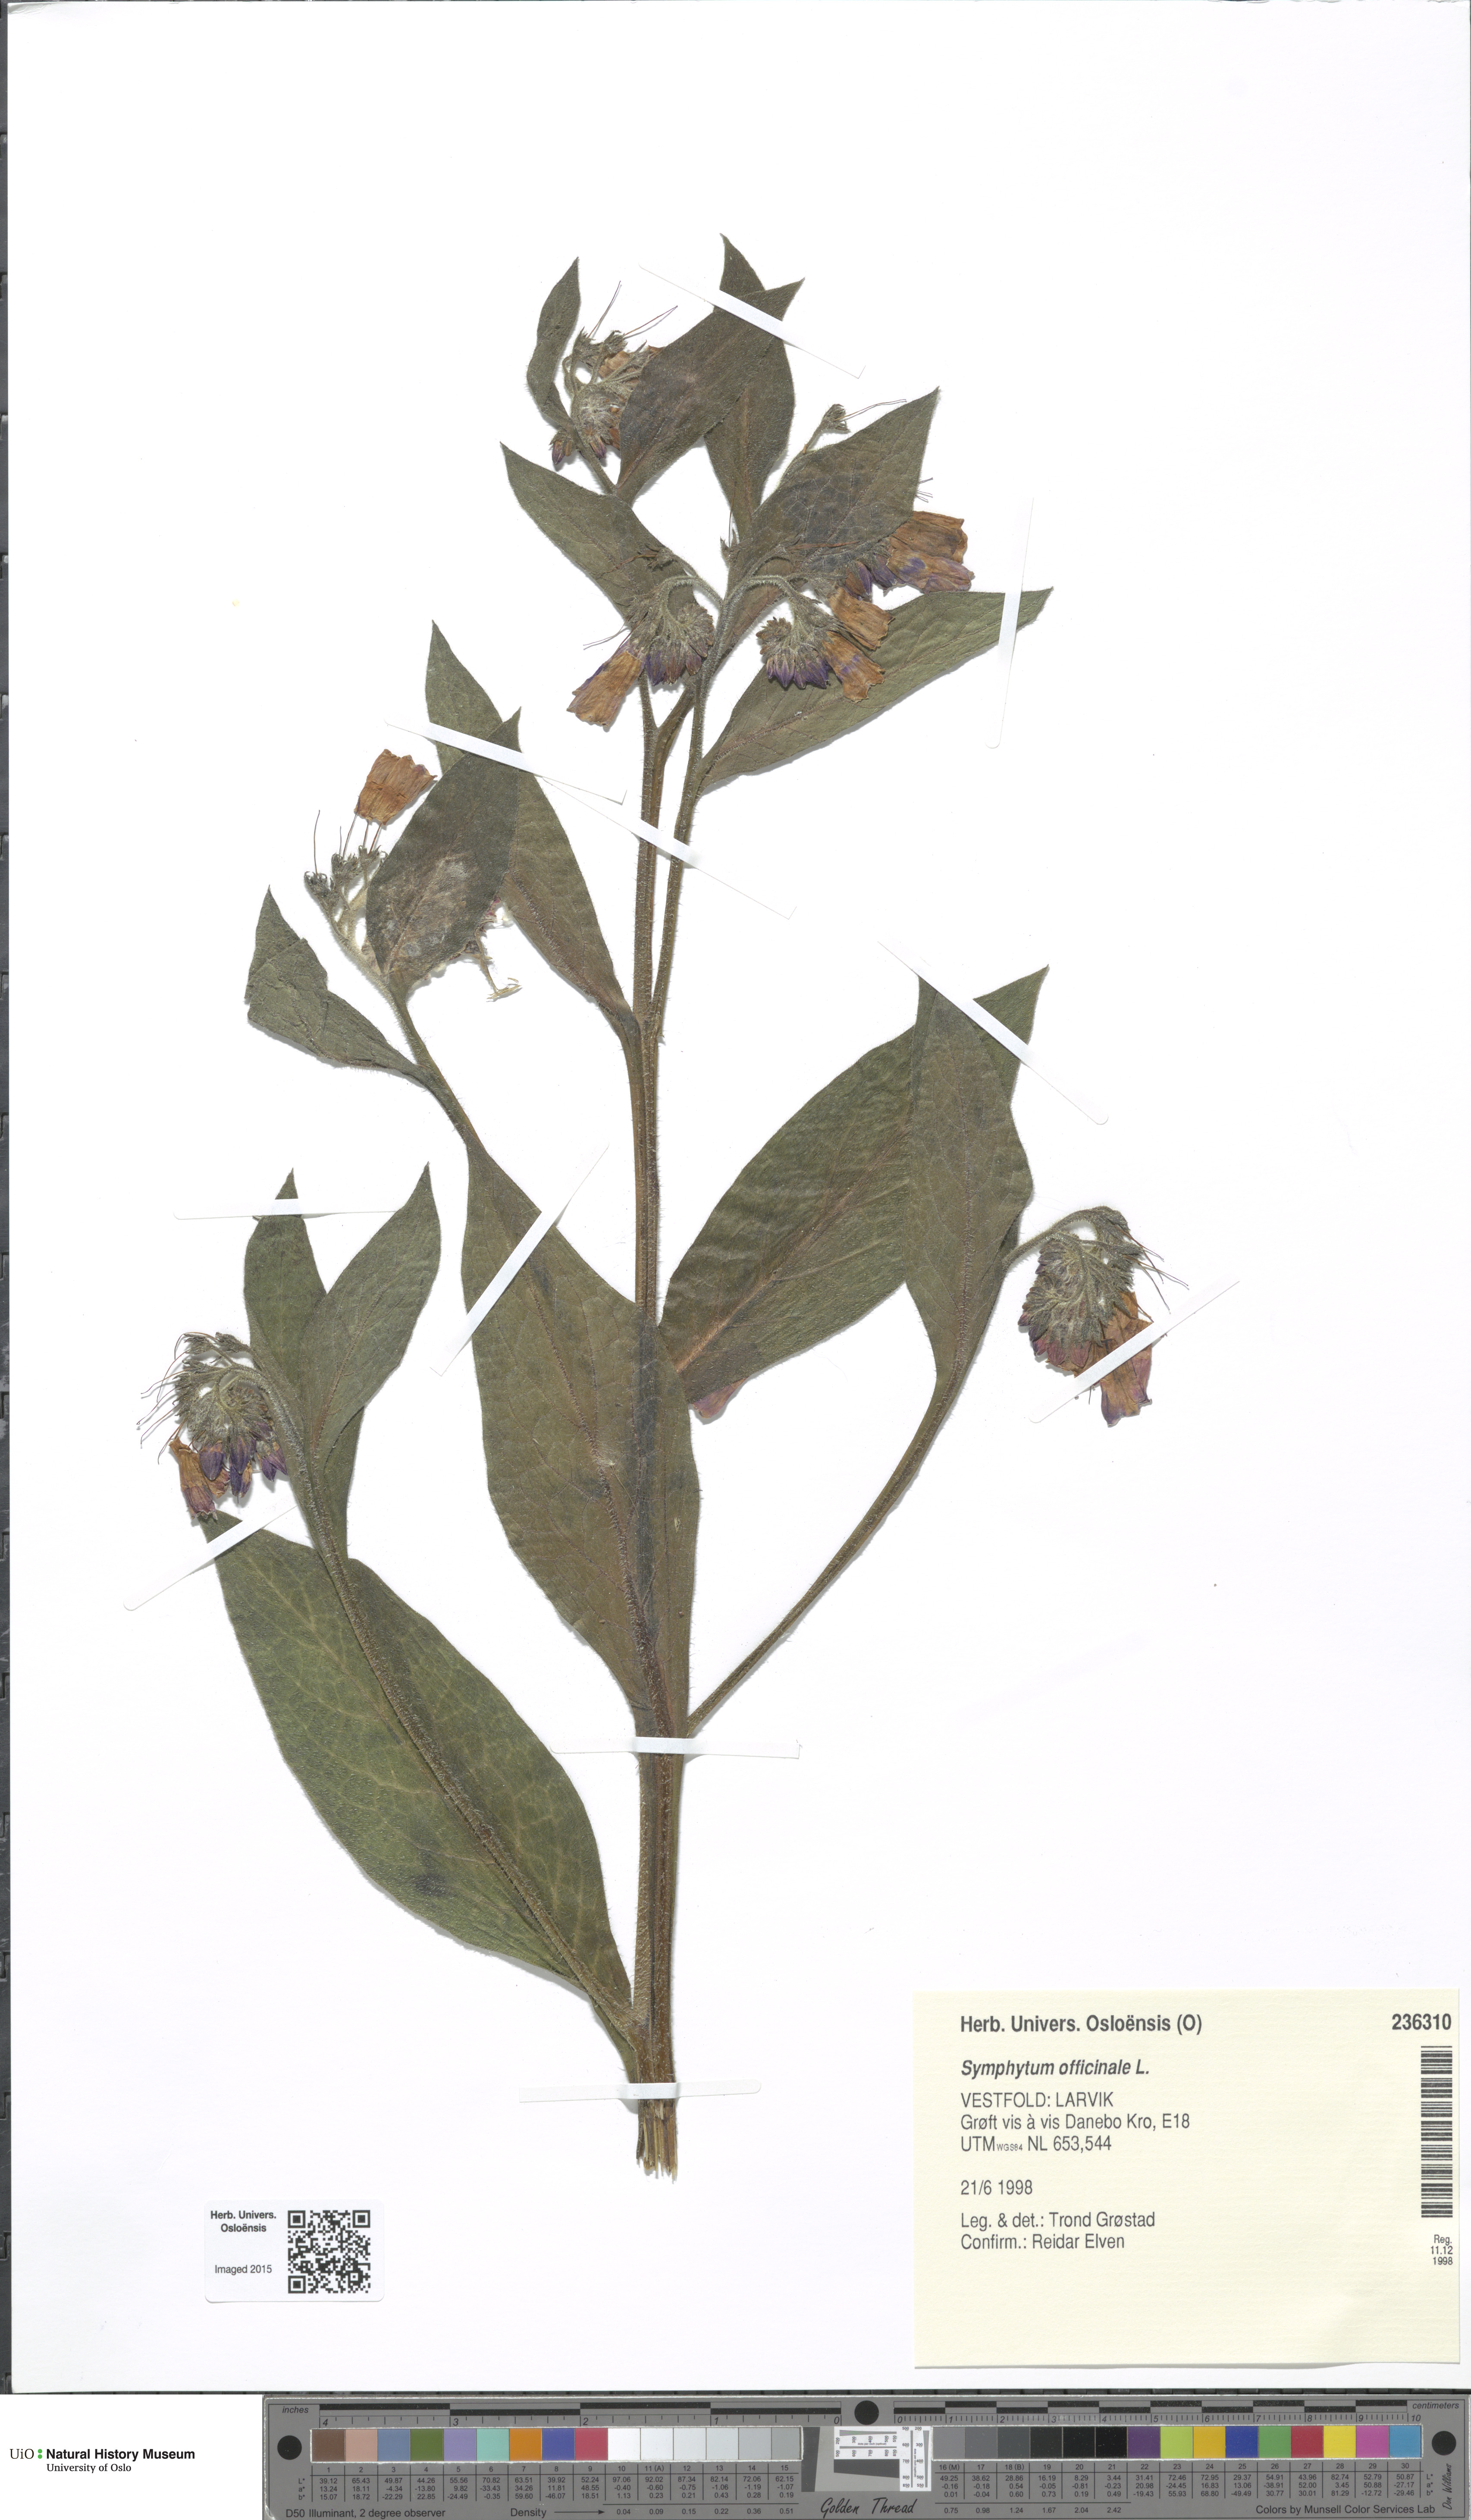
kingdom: Plantae
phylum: Tracheophyta
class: Magnoliopsida
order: Boraginales
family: Boraginaceae
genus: Symphytum
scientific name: Symphytum uplandicum
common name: Russian comfrey
